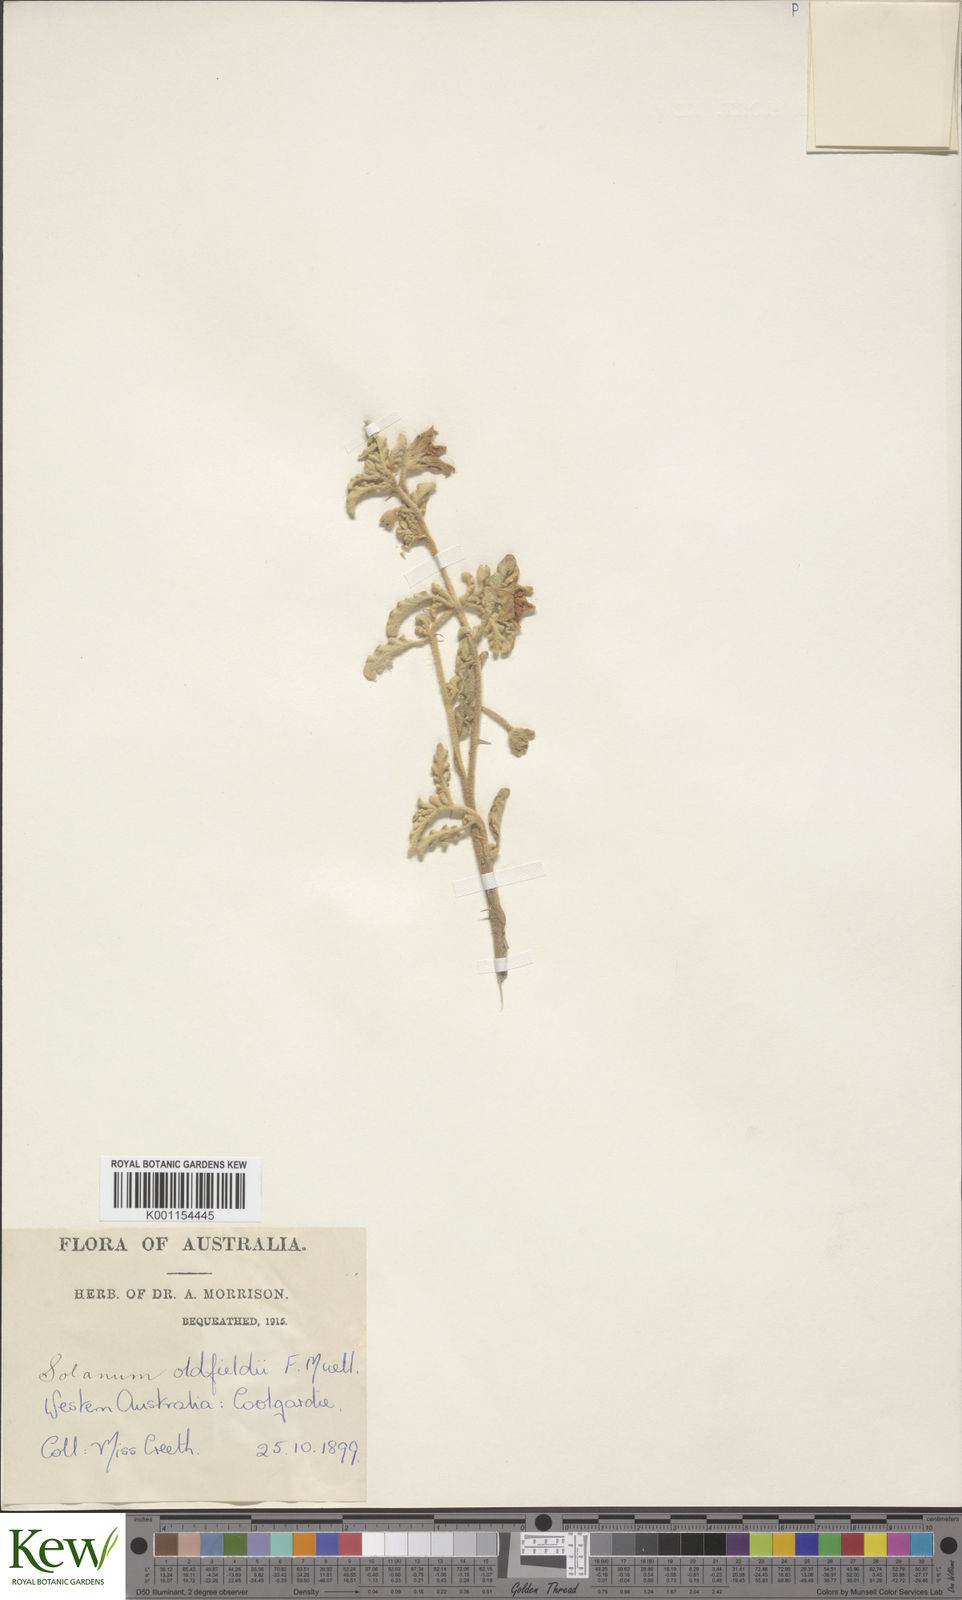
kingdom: Plantae
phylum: Tracheophyta
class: Magnoliopsida
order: Solanales
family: Solanaceae
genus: Solanum
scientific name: Solanum plicatile
